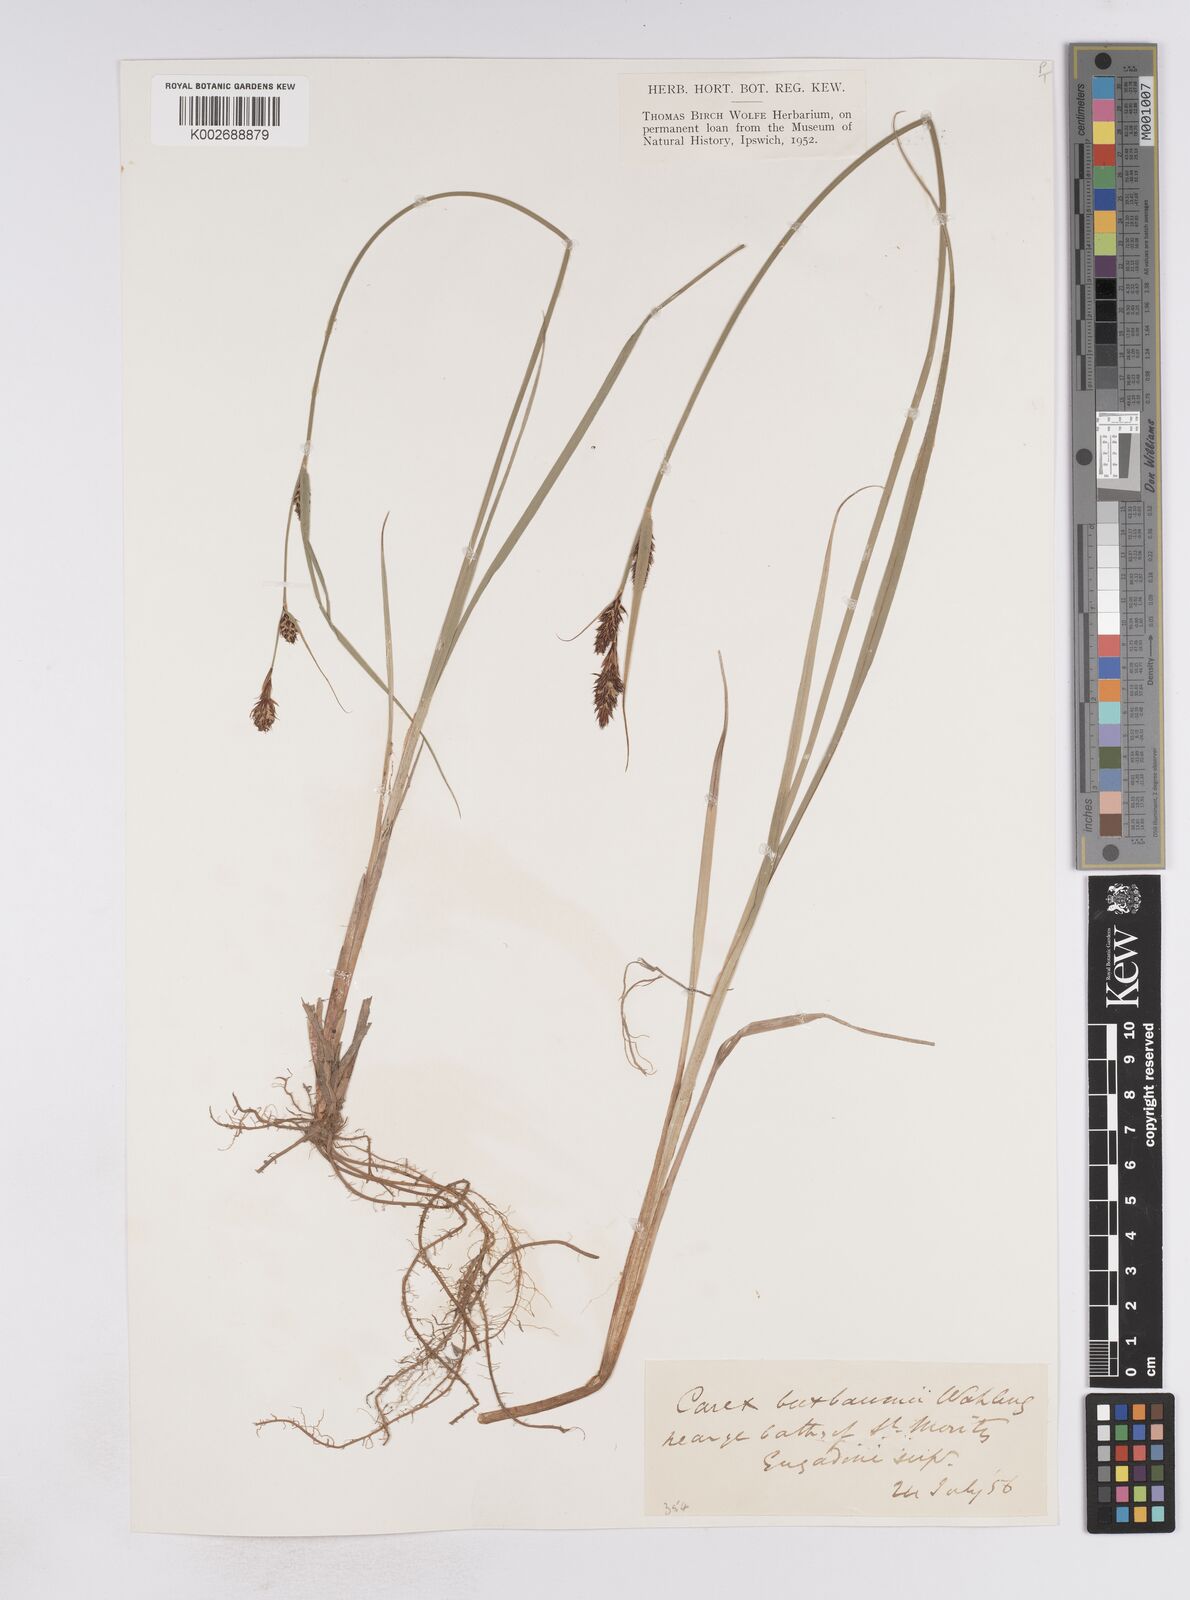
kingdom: Plantae
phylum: Tracheophyta
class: Liliopsida
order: Poales
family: Cyperaceae
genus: Carex
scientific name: Carex buxbaumii
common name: Club sedge
